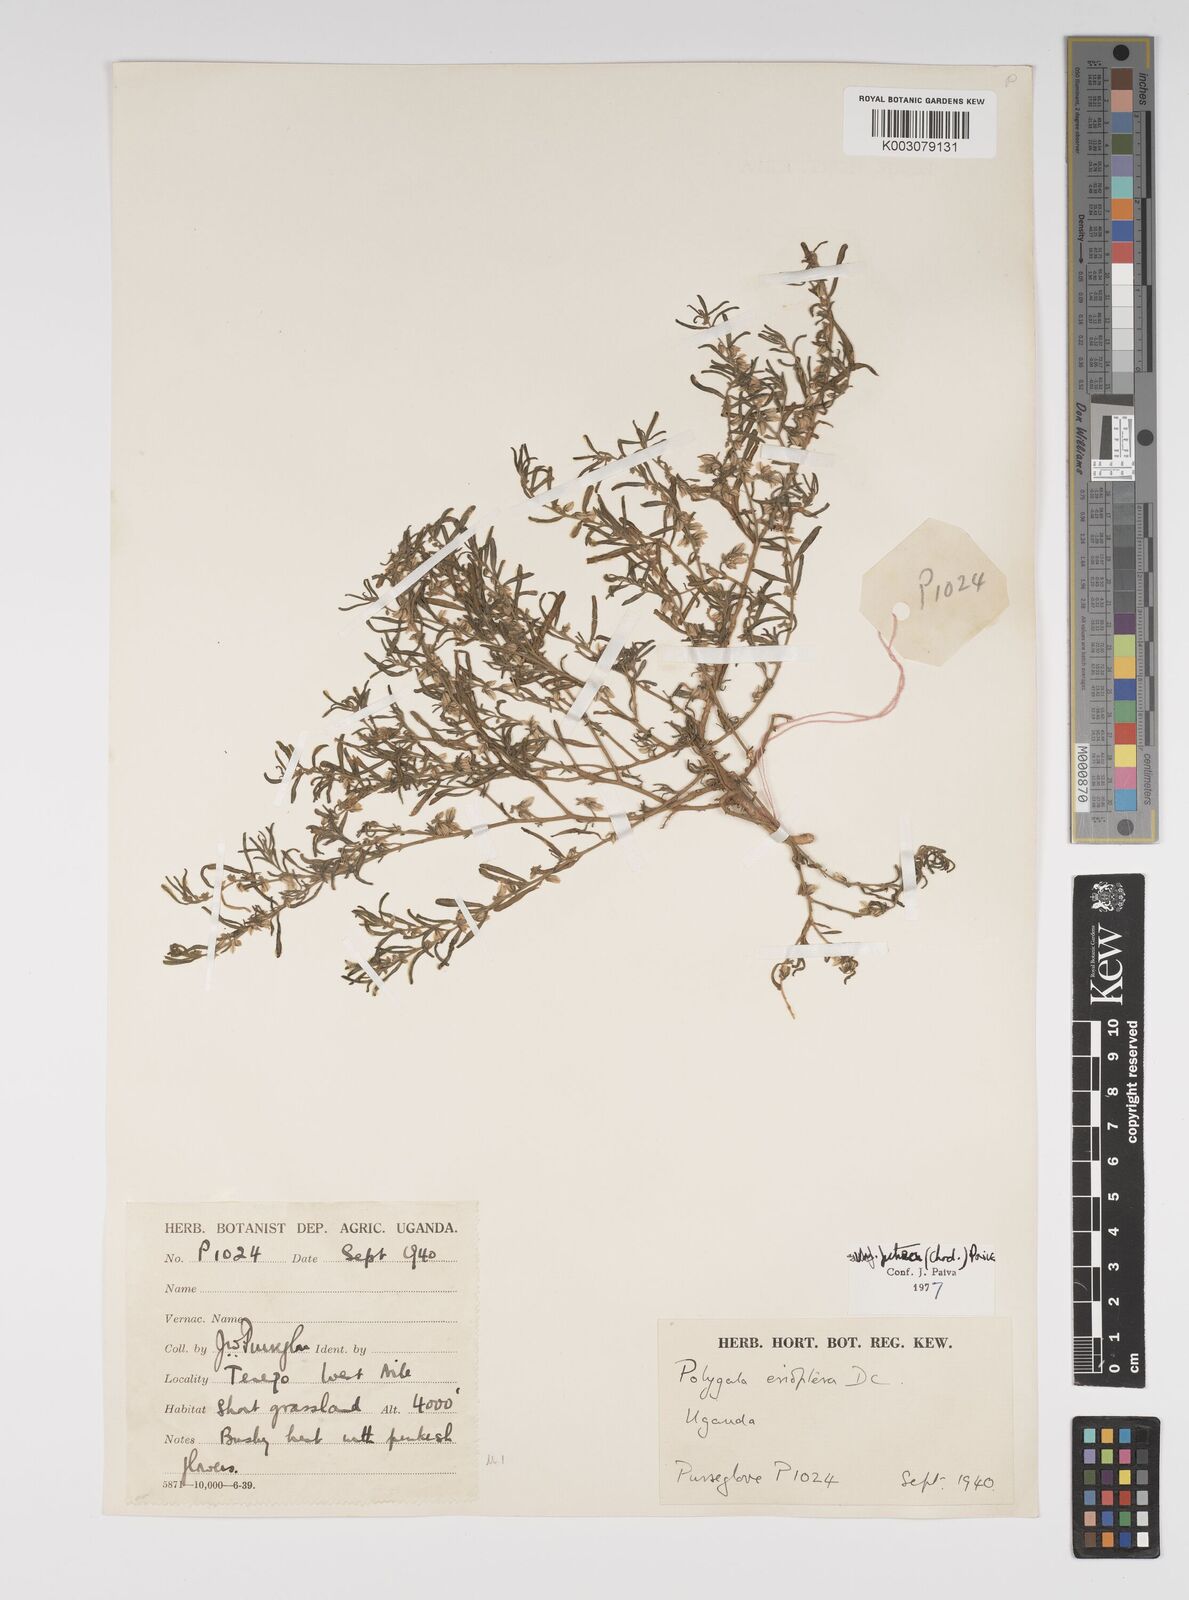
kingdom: Plantae
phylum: Tracheophyta
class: Magnoliopsida
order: Fabales
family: Polygalaceae
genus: Polygala
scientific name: Polygala erioptera
